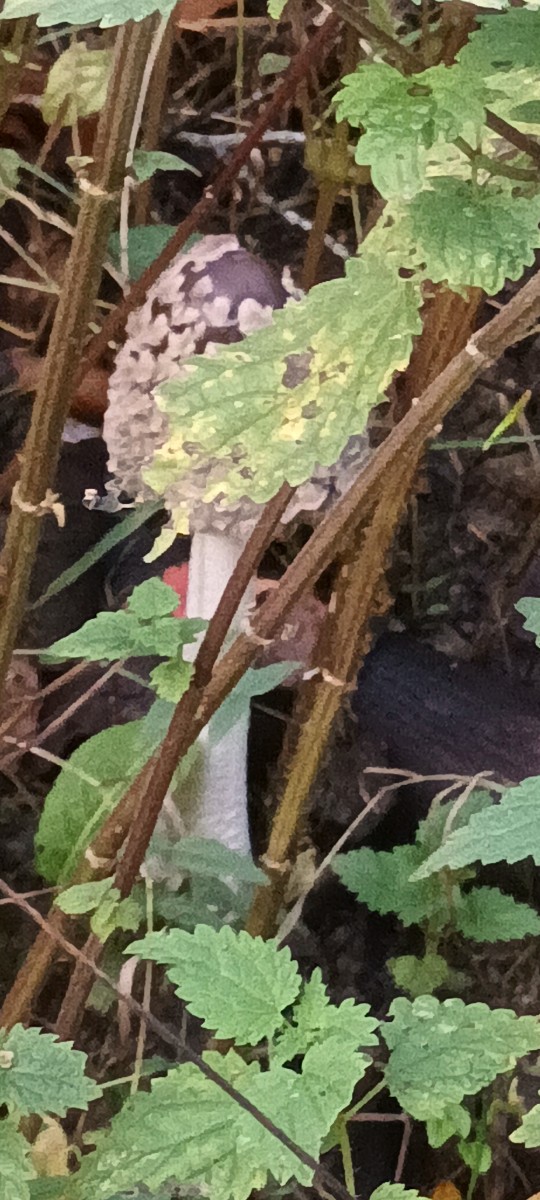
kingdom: Fungi
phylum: Basidiomycota
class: Agaricomycetes
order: Agaricales
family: Psathyrellaceae
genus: Coprinopsis
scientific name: Coprinopsis picacea
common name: skade-blækhat
